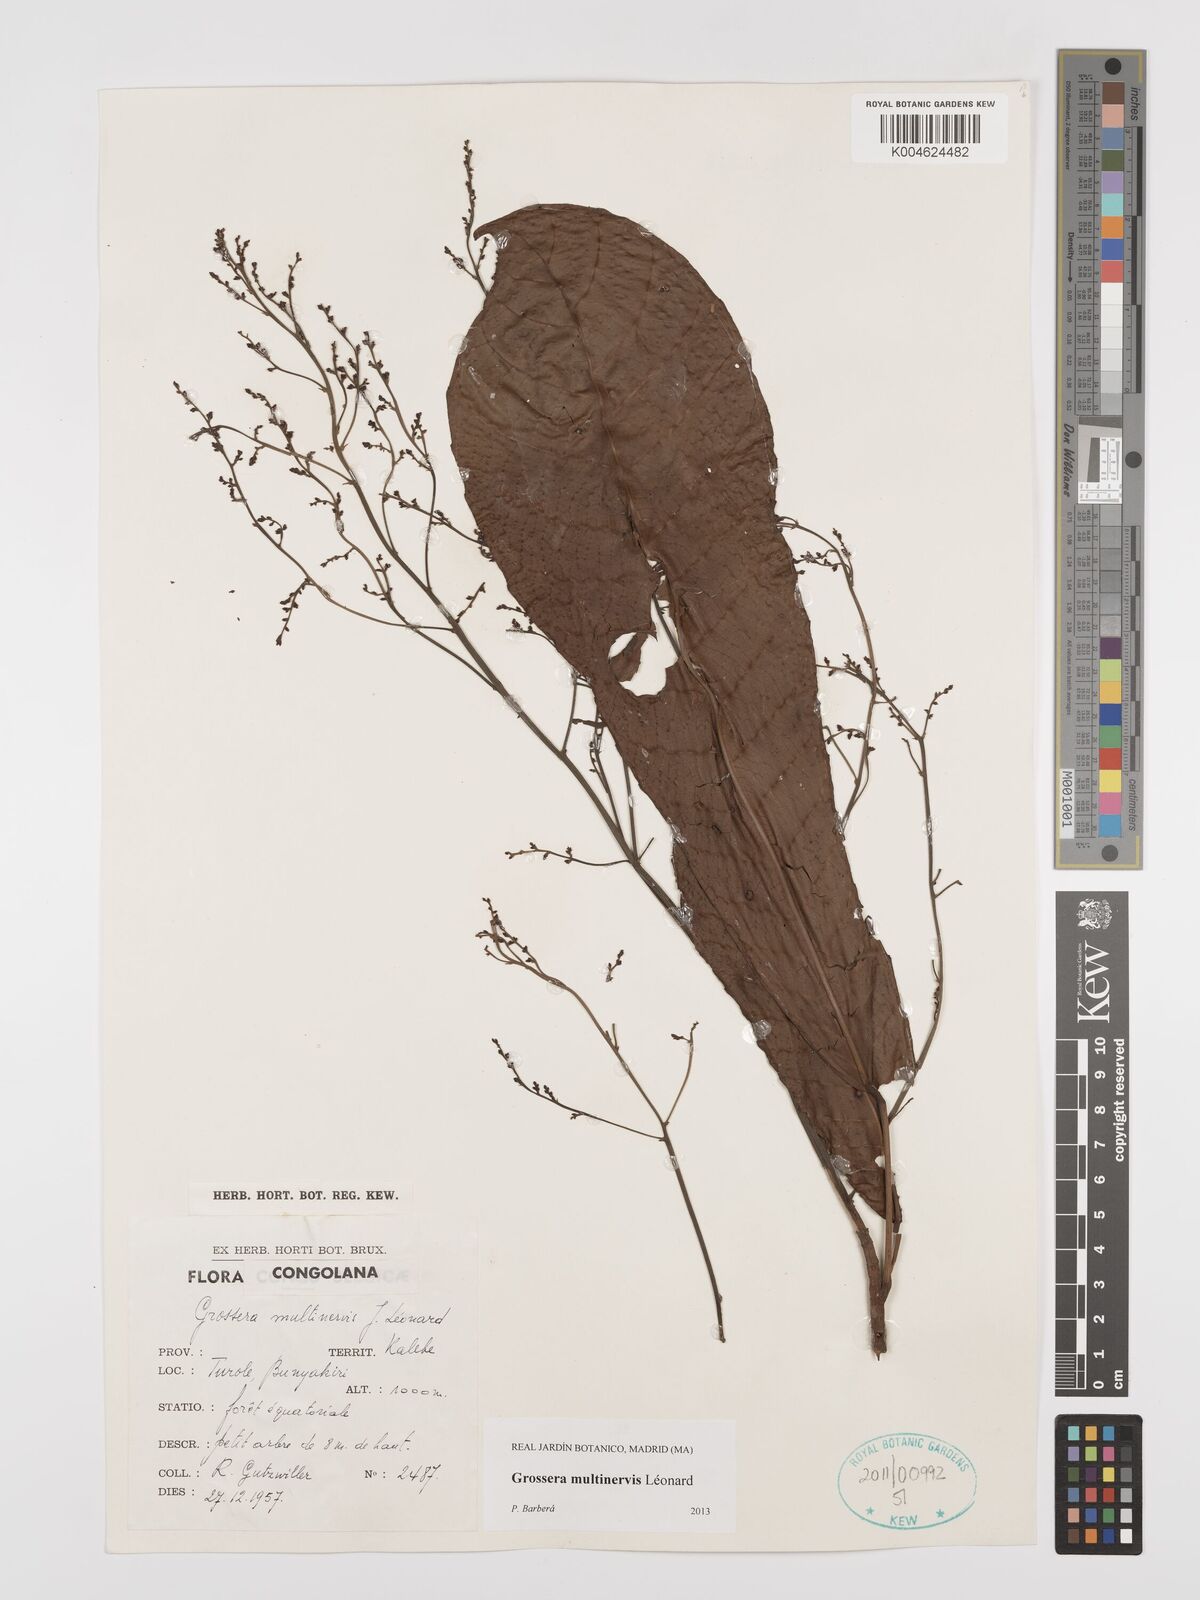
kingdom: Plantae
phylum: Tracheophyta
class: Magnoliopsida
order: Malpighiales
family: Euphorbiaceae
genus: Grossera
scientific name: Grossera multinervis
